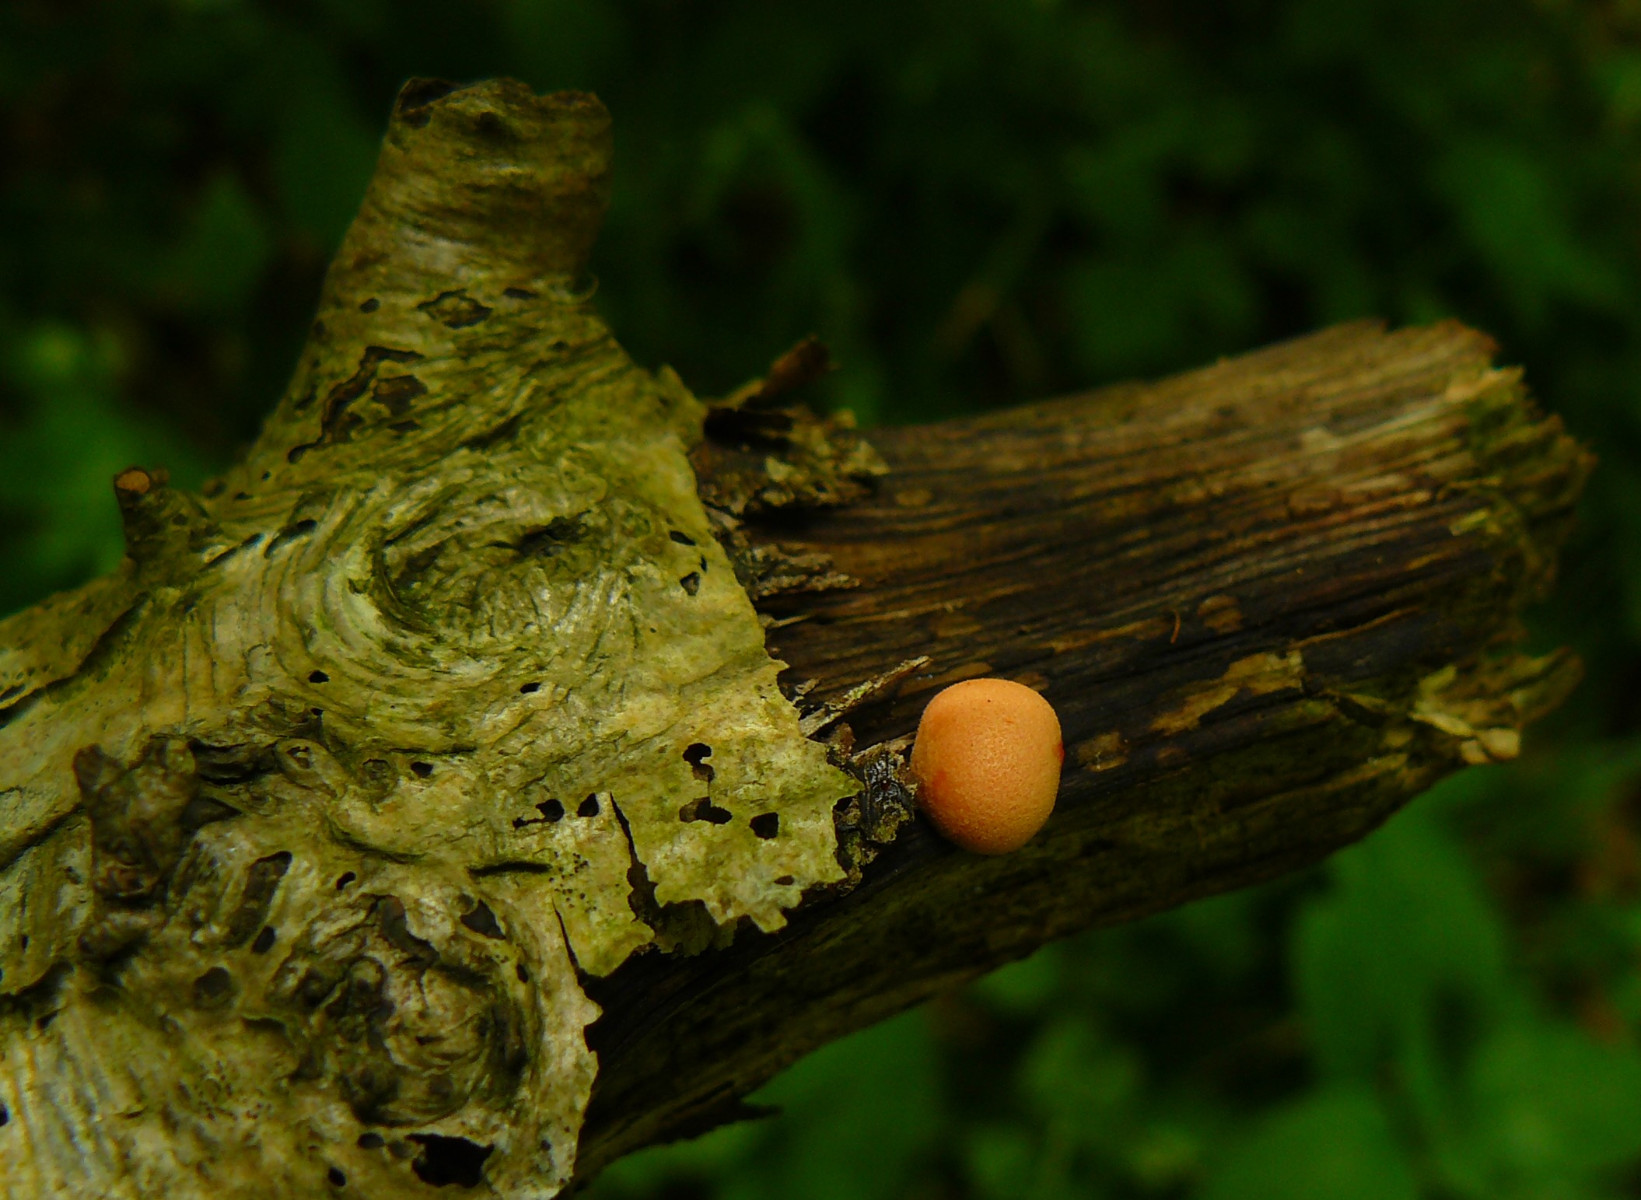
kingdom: Protozoa
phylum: Mycetozoa
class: Myxomycetes
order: Cribrariales
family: Tubiferaceae
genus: Lycogala
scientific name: Lycogala epidendrum
